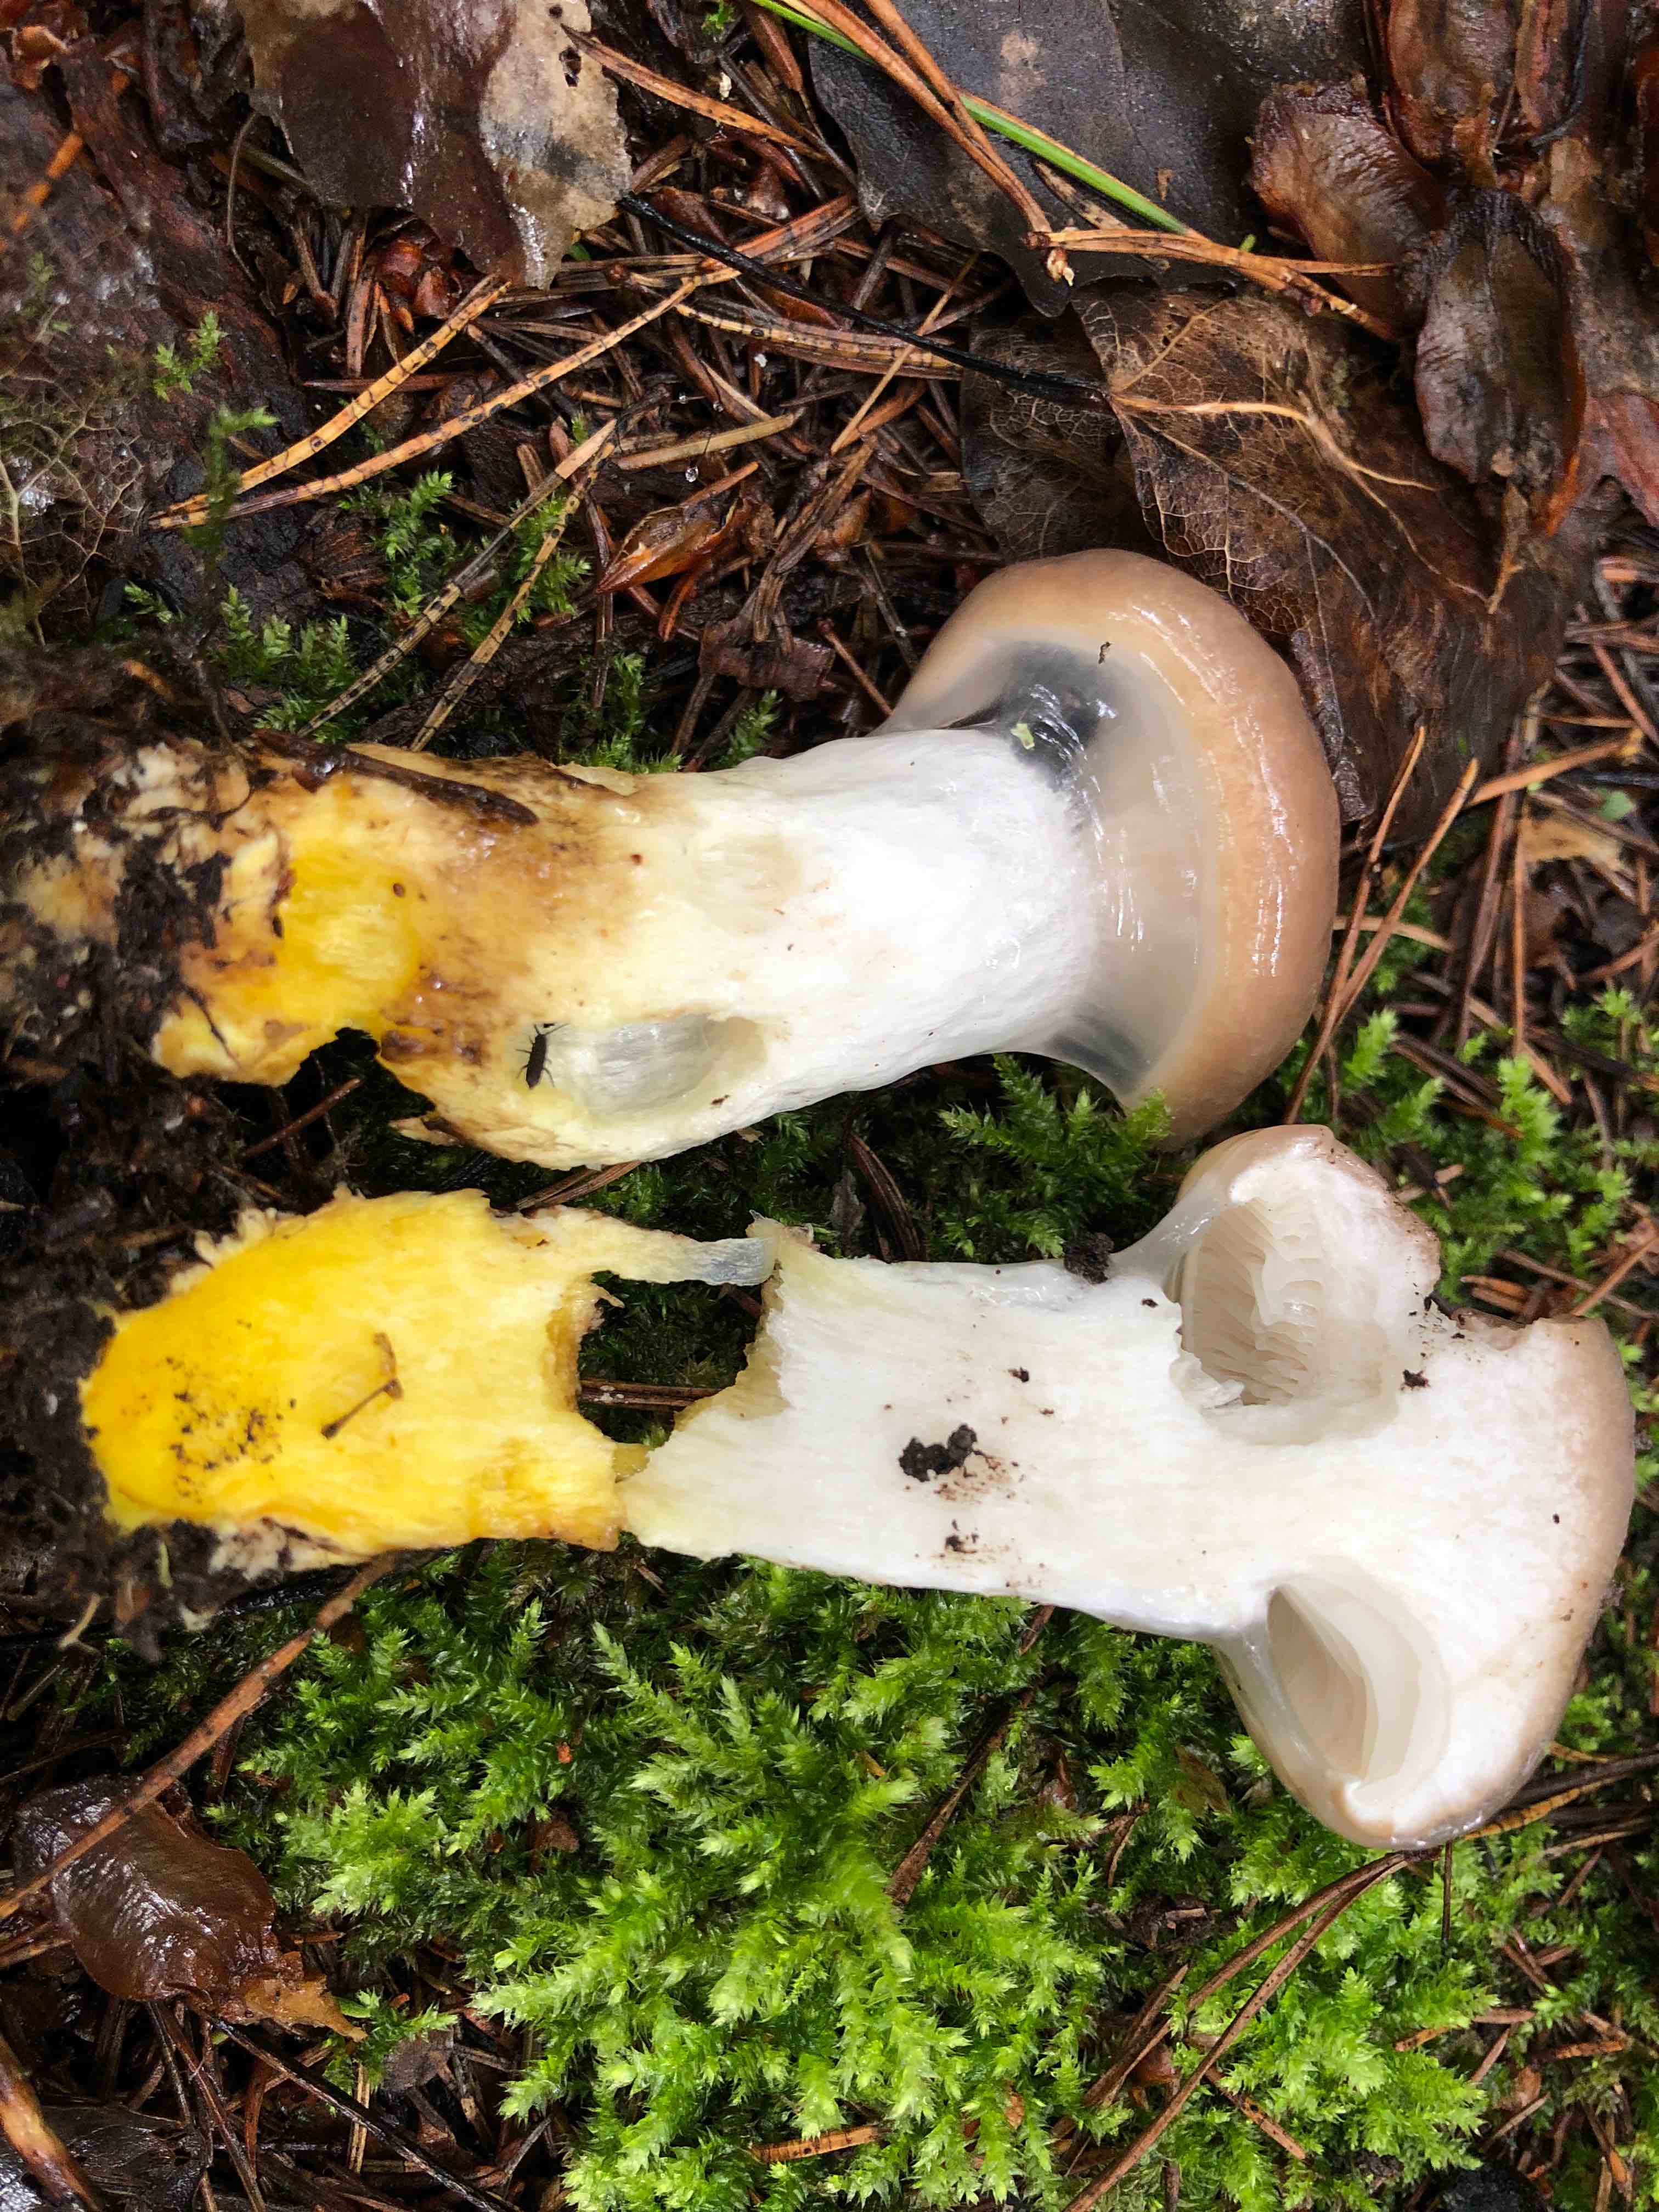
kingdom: Fungi
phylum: Basidiomycota
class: Agaricomycetes
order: Boletales
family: Gomphidiaceae
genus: Gomphidius
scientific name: Gomphidius glutinosus
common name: grå slimslør
